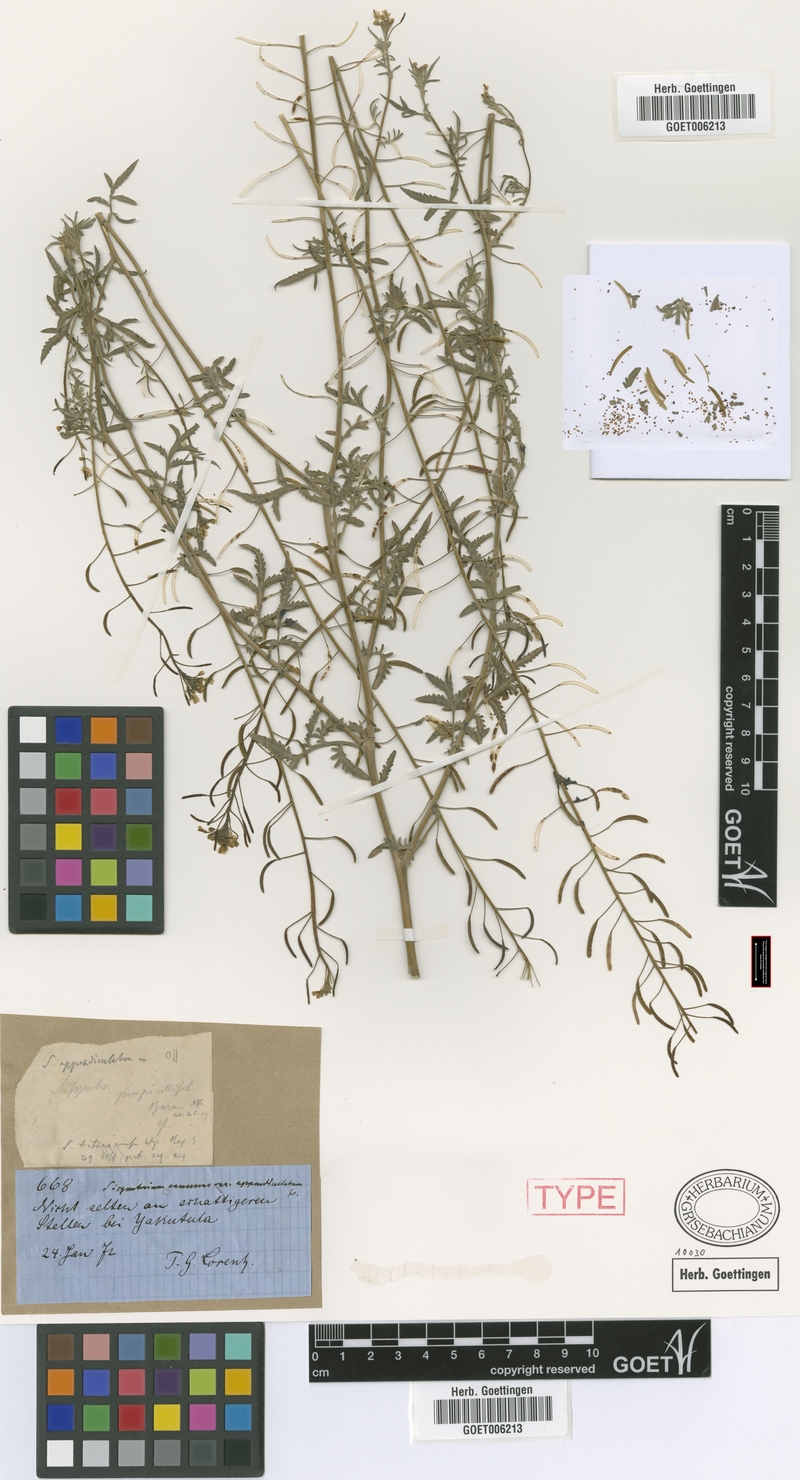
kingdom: Plantae
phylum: Tracheophyta
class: Magnoliopsida
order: Brassicales
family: Brassicaceae
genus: Descurainia
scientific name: Descurainia erodiifolia
